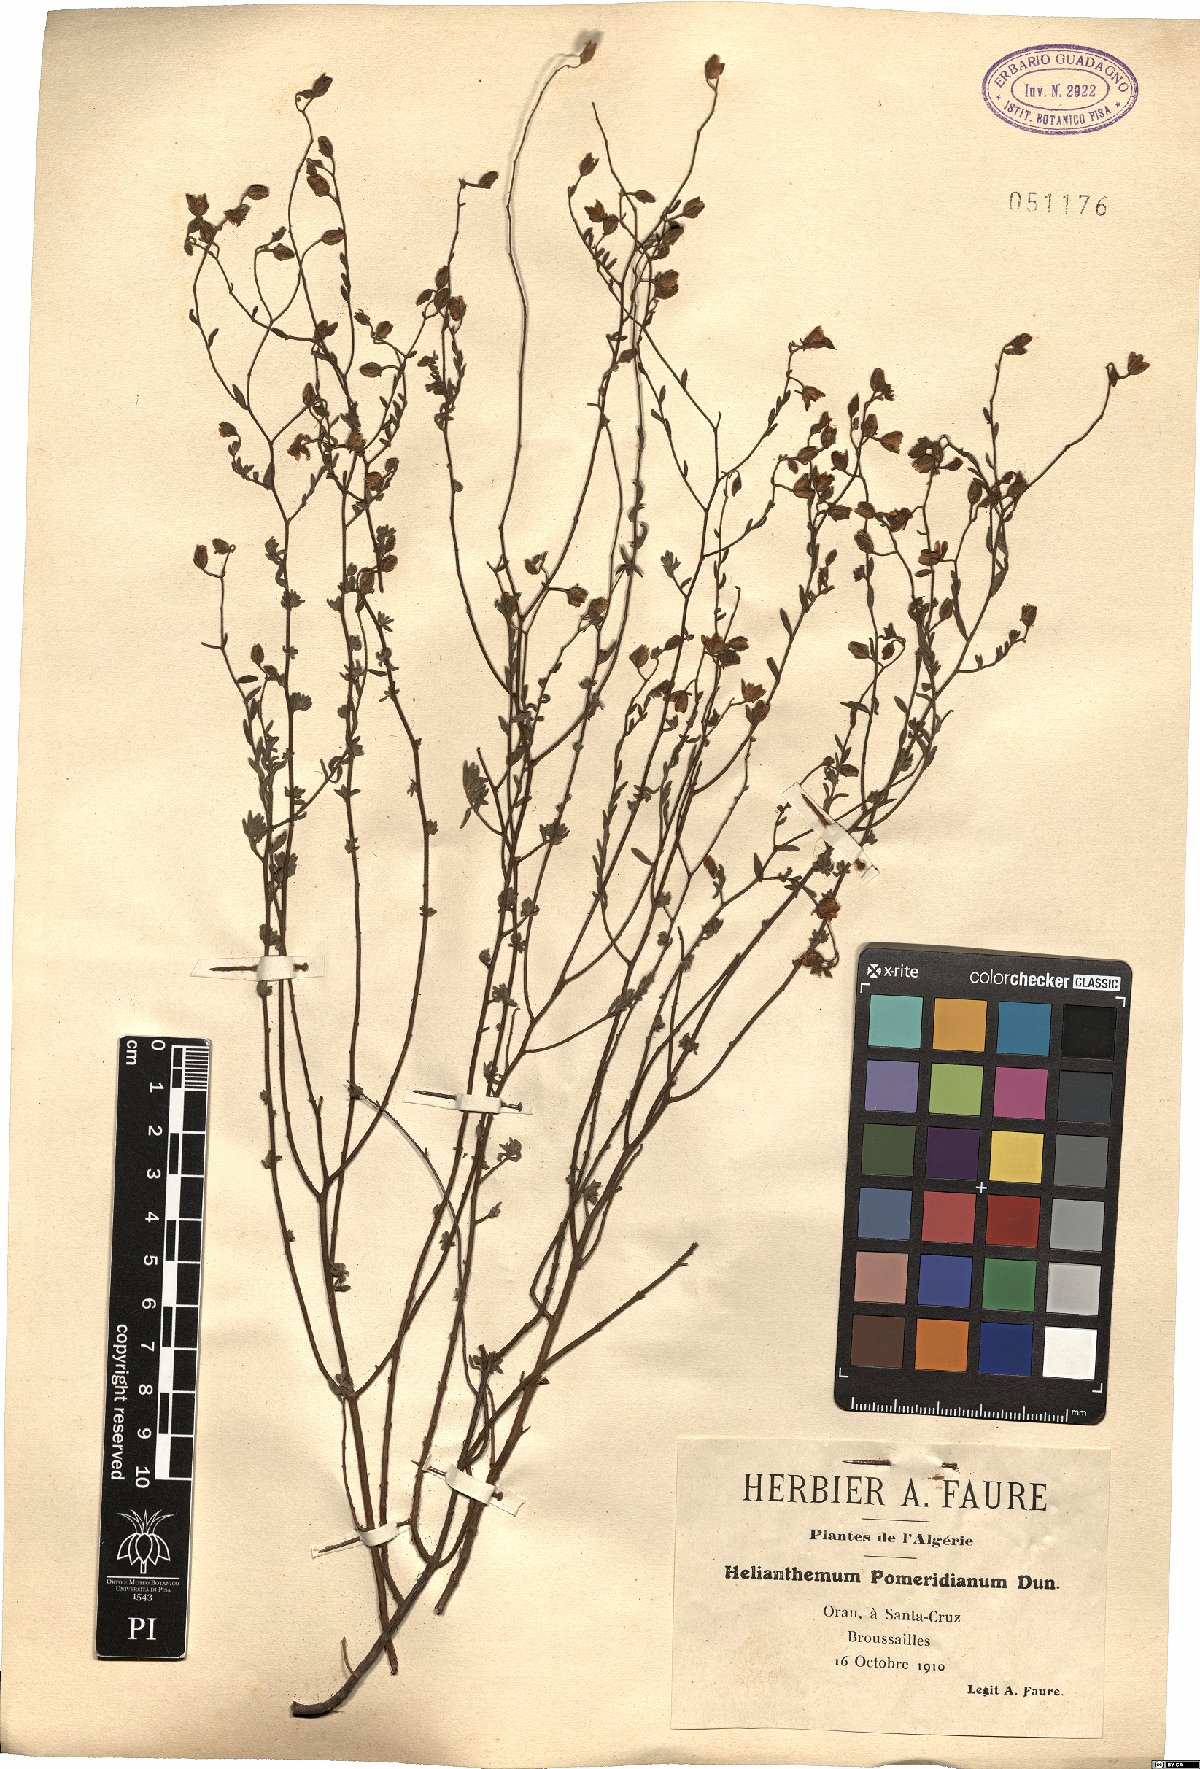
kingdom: Plantae
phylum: Tracheophyta
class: Magnoliopsida
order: Malvales
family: Cistaceae
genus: Helianthemum
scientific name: Helianthemum pomeridianum
